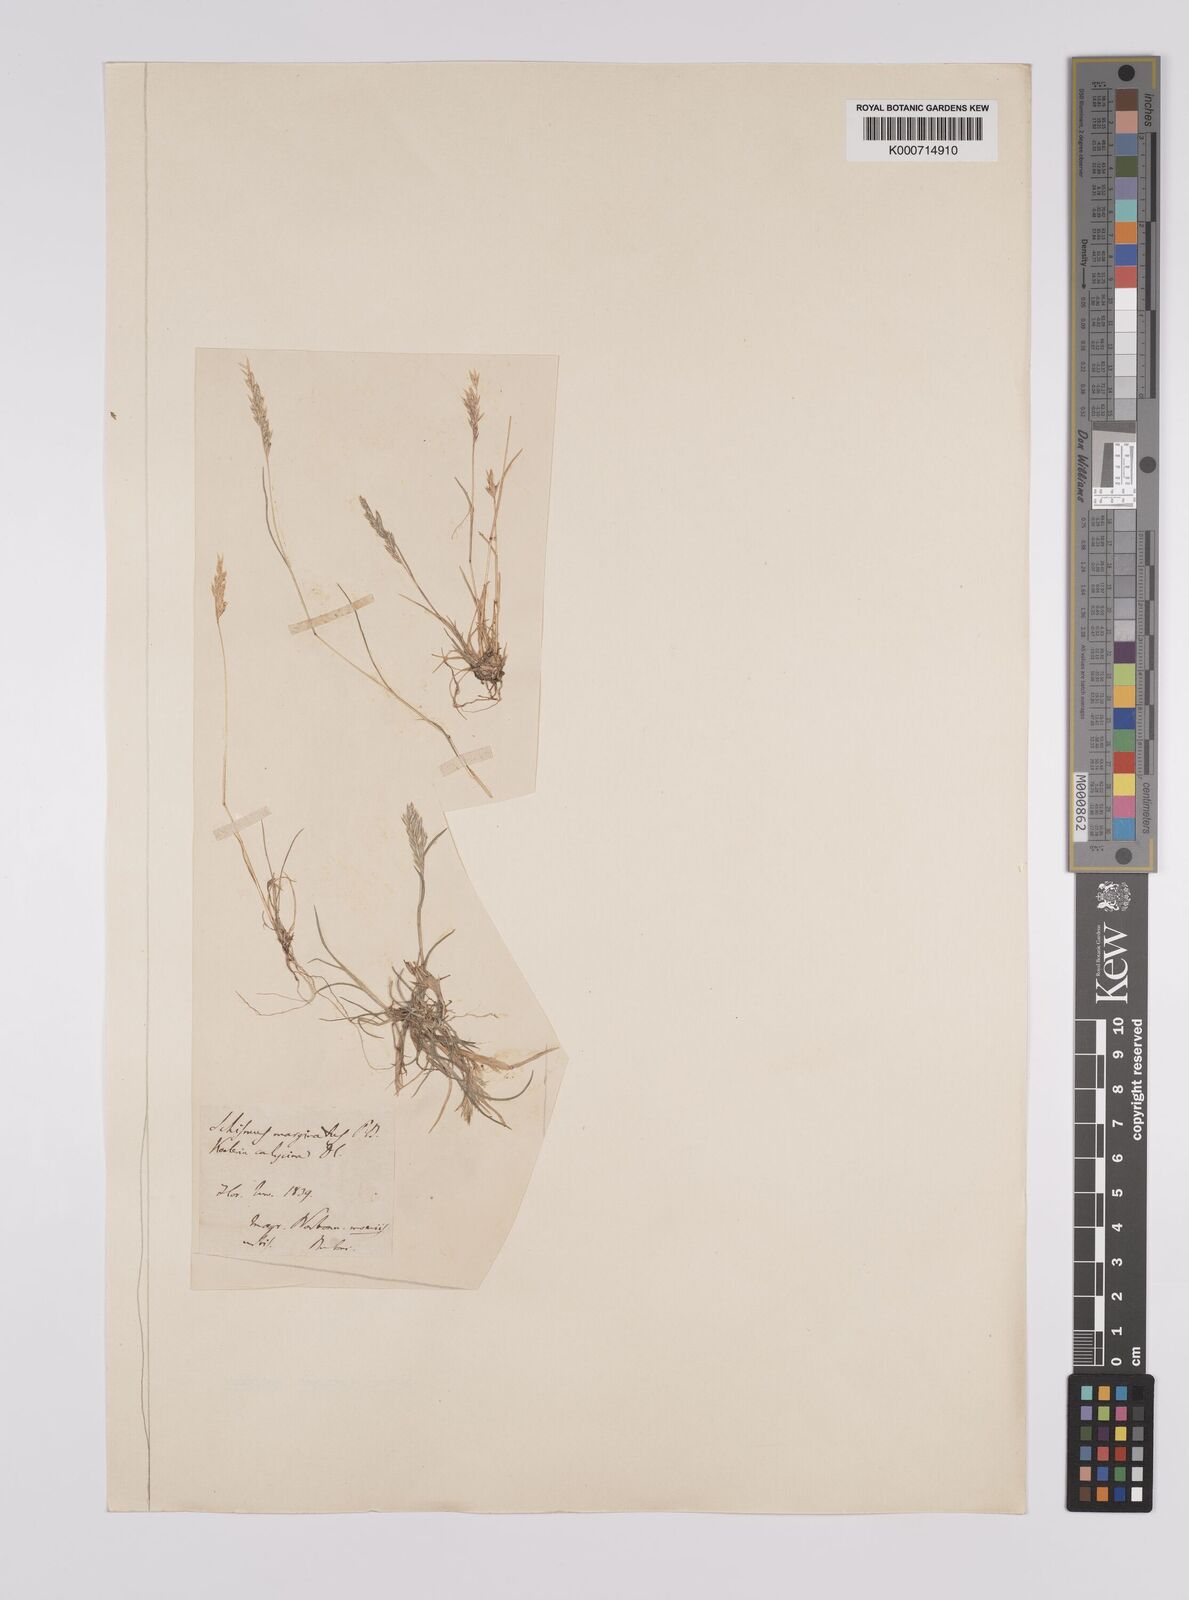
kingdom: Plantae
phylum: Tracheophyta
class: Liliopsida
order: Poales
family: Poaceae
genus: Schismus
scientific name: Schismus barbatus
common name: Kelch-grass
